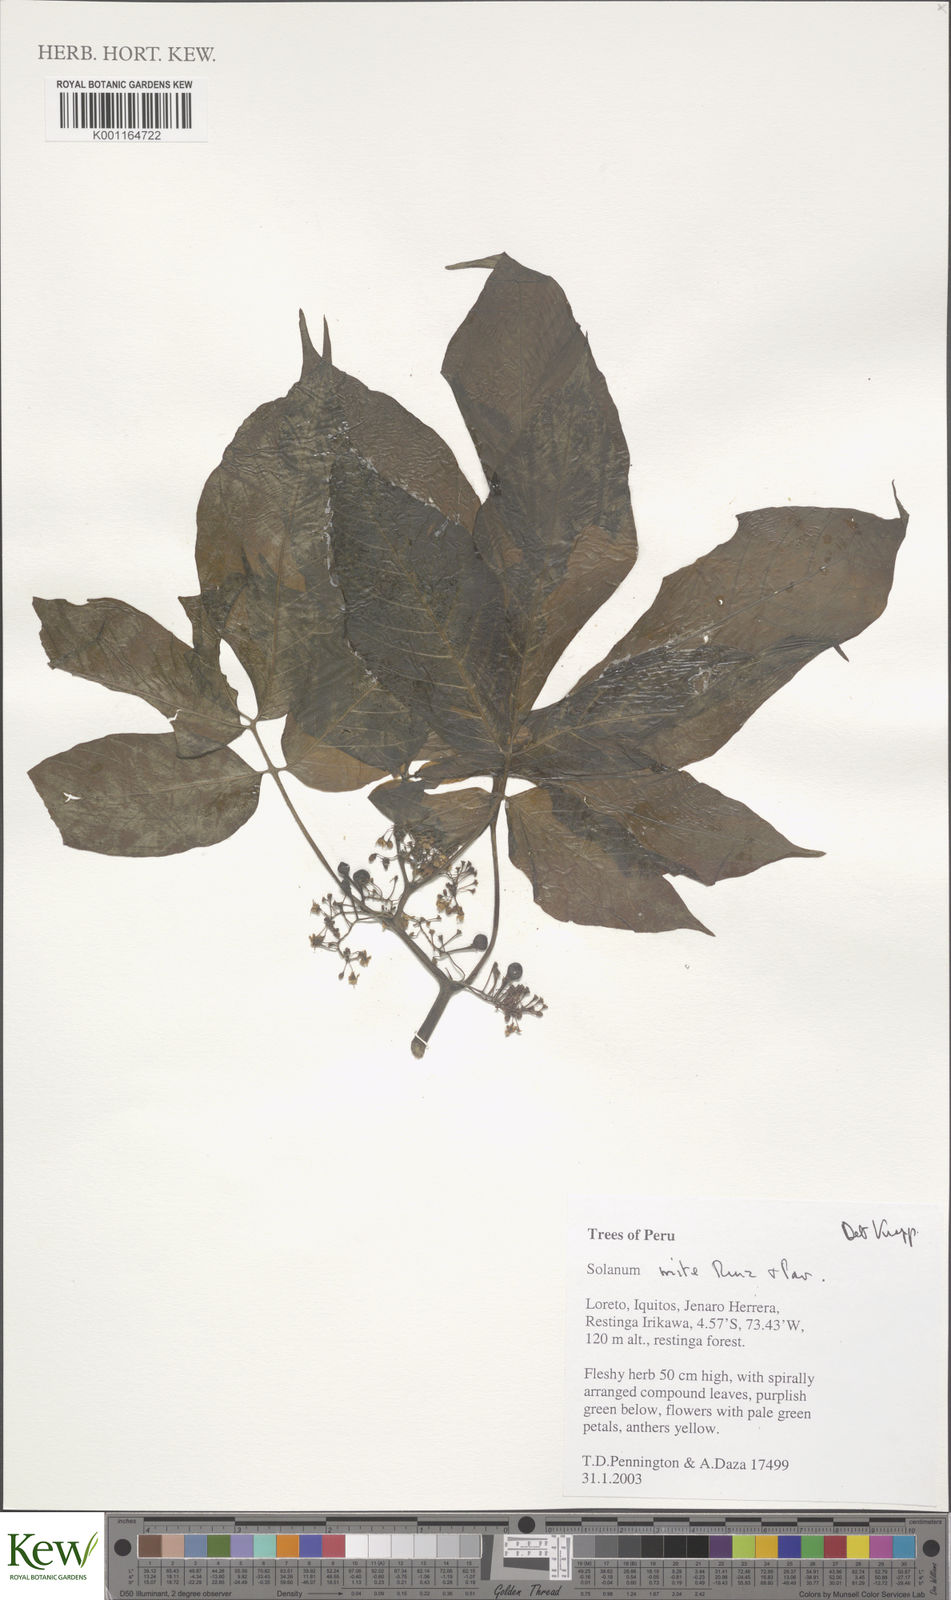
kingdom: Plantae
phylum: Tracheophyta
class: Magnoliopsida
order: Solanales
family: Solanaceae
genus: Solanum
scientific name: Solanum mite
